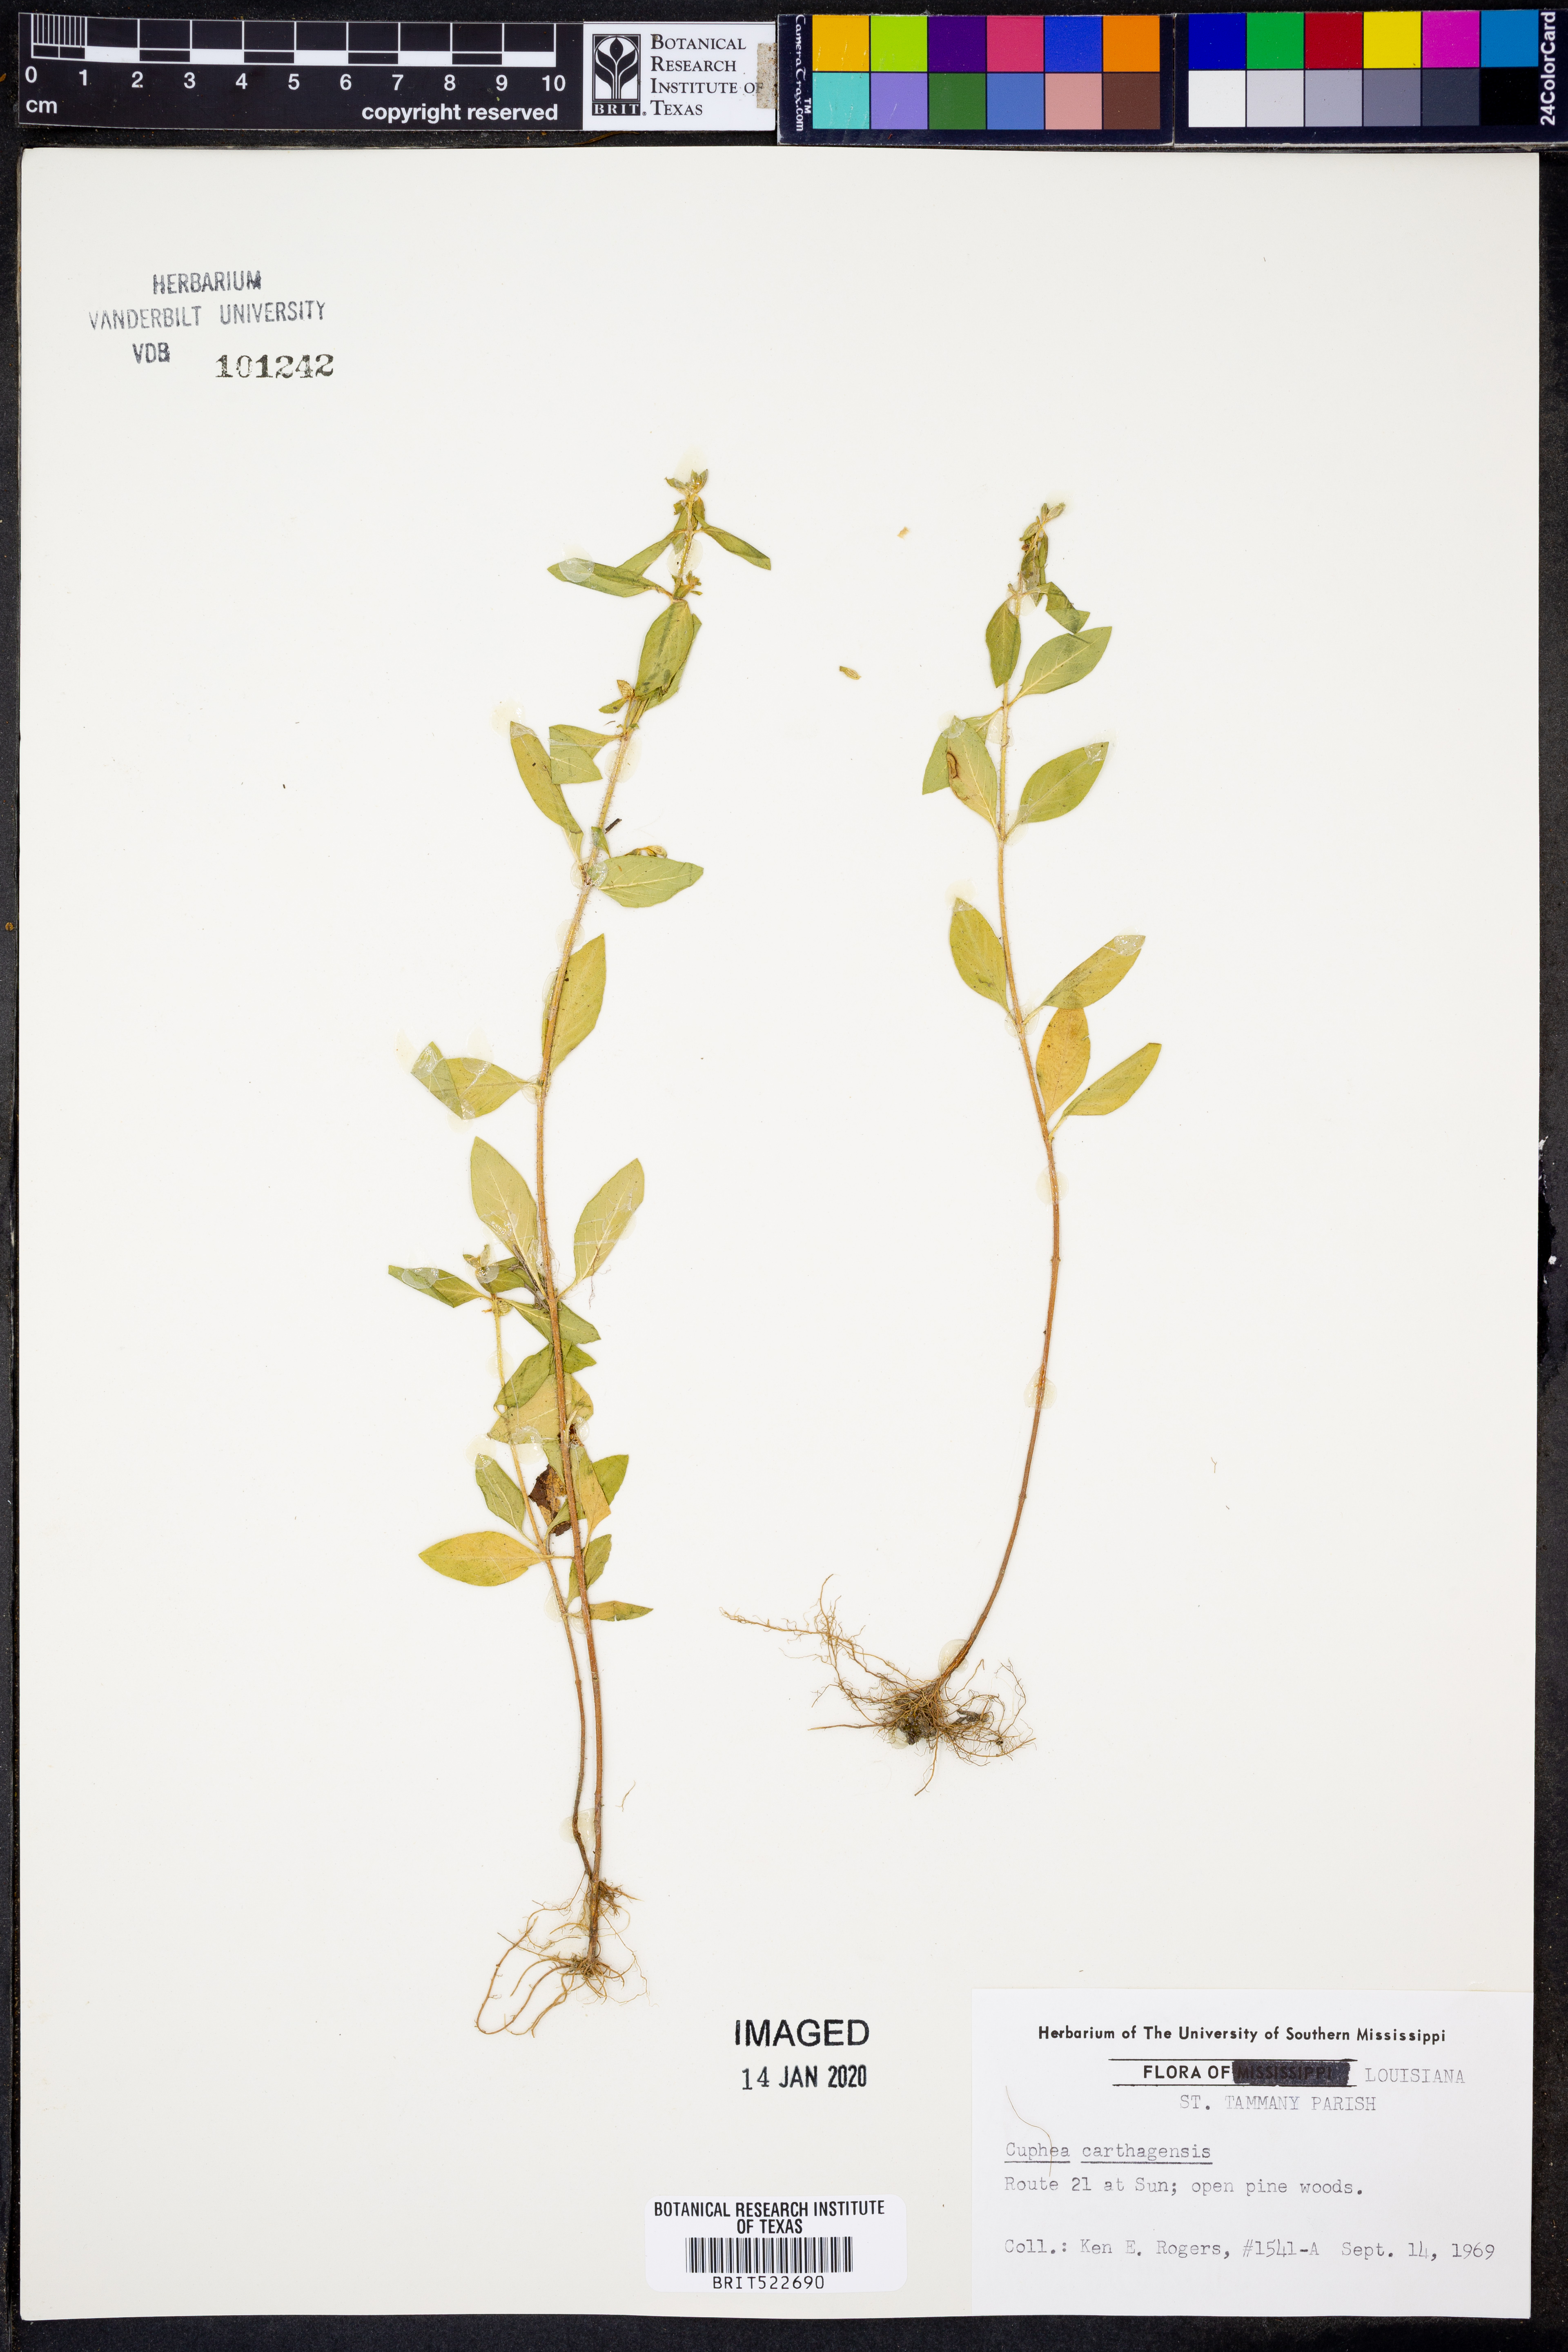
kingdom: Plantae
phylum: Tracheophyta
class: Magnoliopsida
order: Myrtales
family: Lythraceae
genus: Cuphea
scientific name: Cuphea carthagenensis
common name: Colombian waxweed
